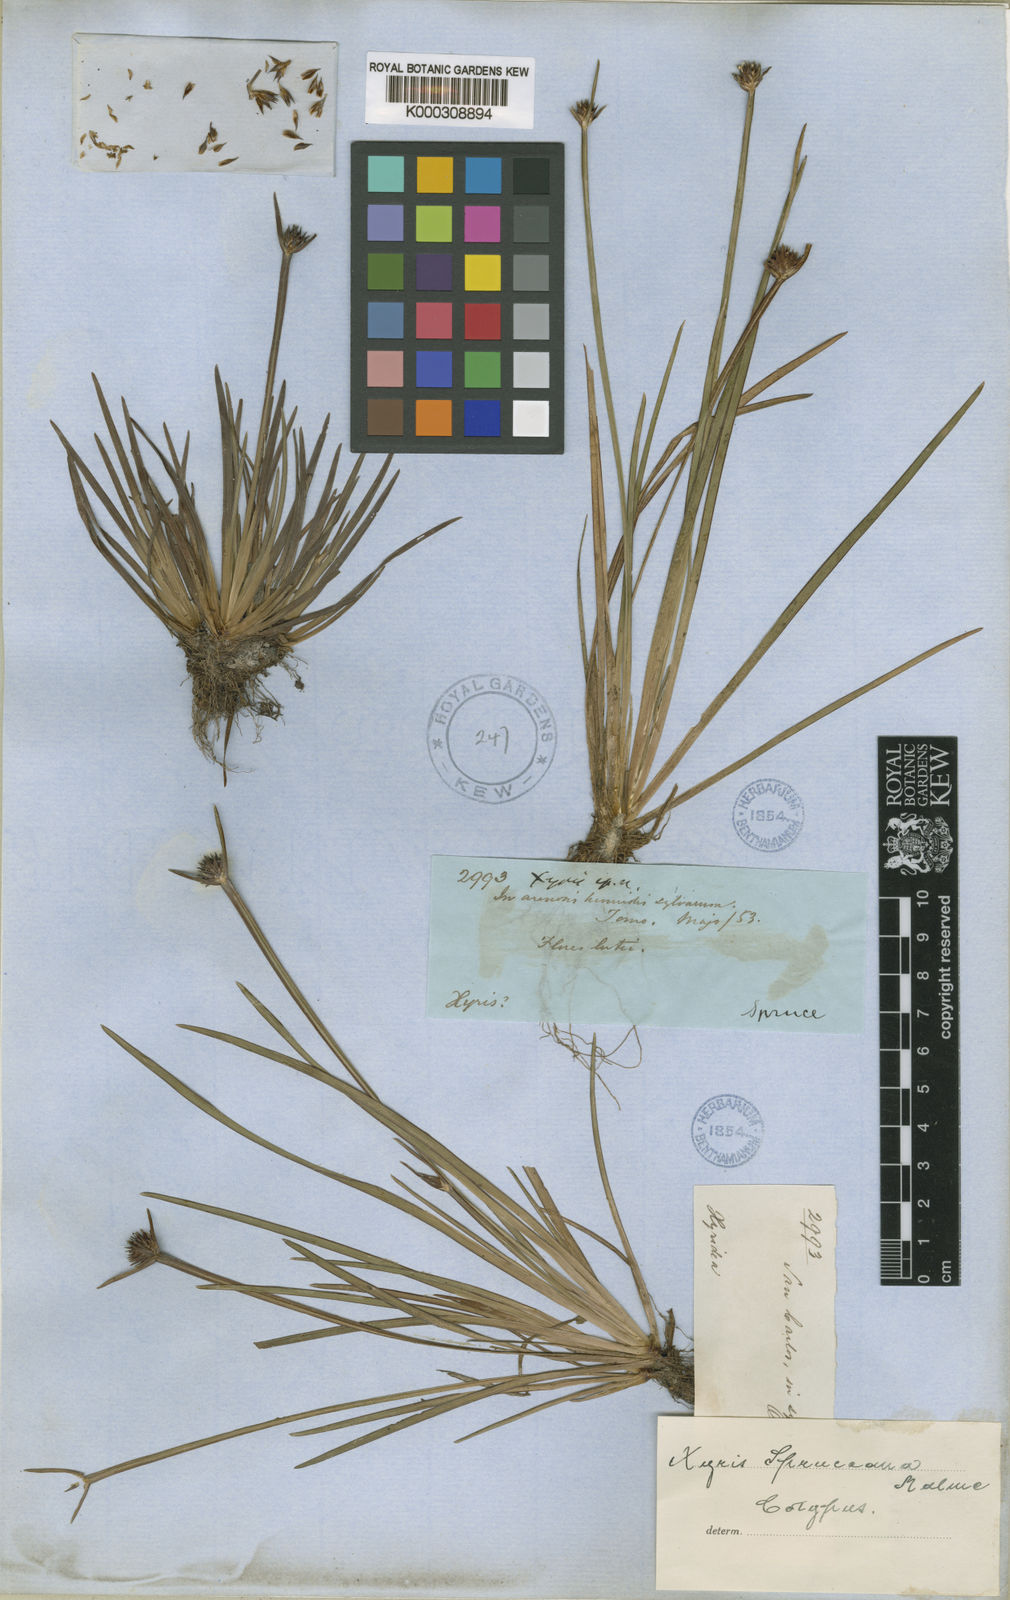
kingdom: Plantae
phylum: Tracheophyta
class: Liliopsida
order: Poales
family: Xyridaceae
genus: Xyris
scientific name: Xyris spruceana
